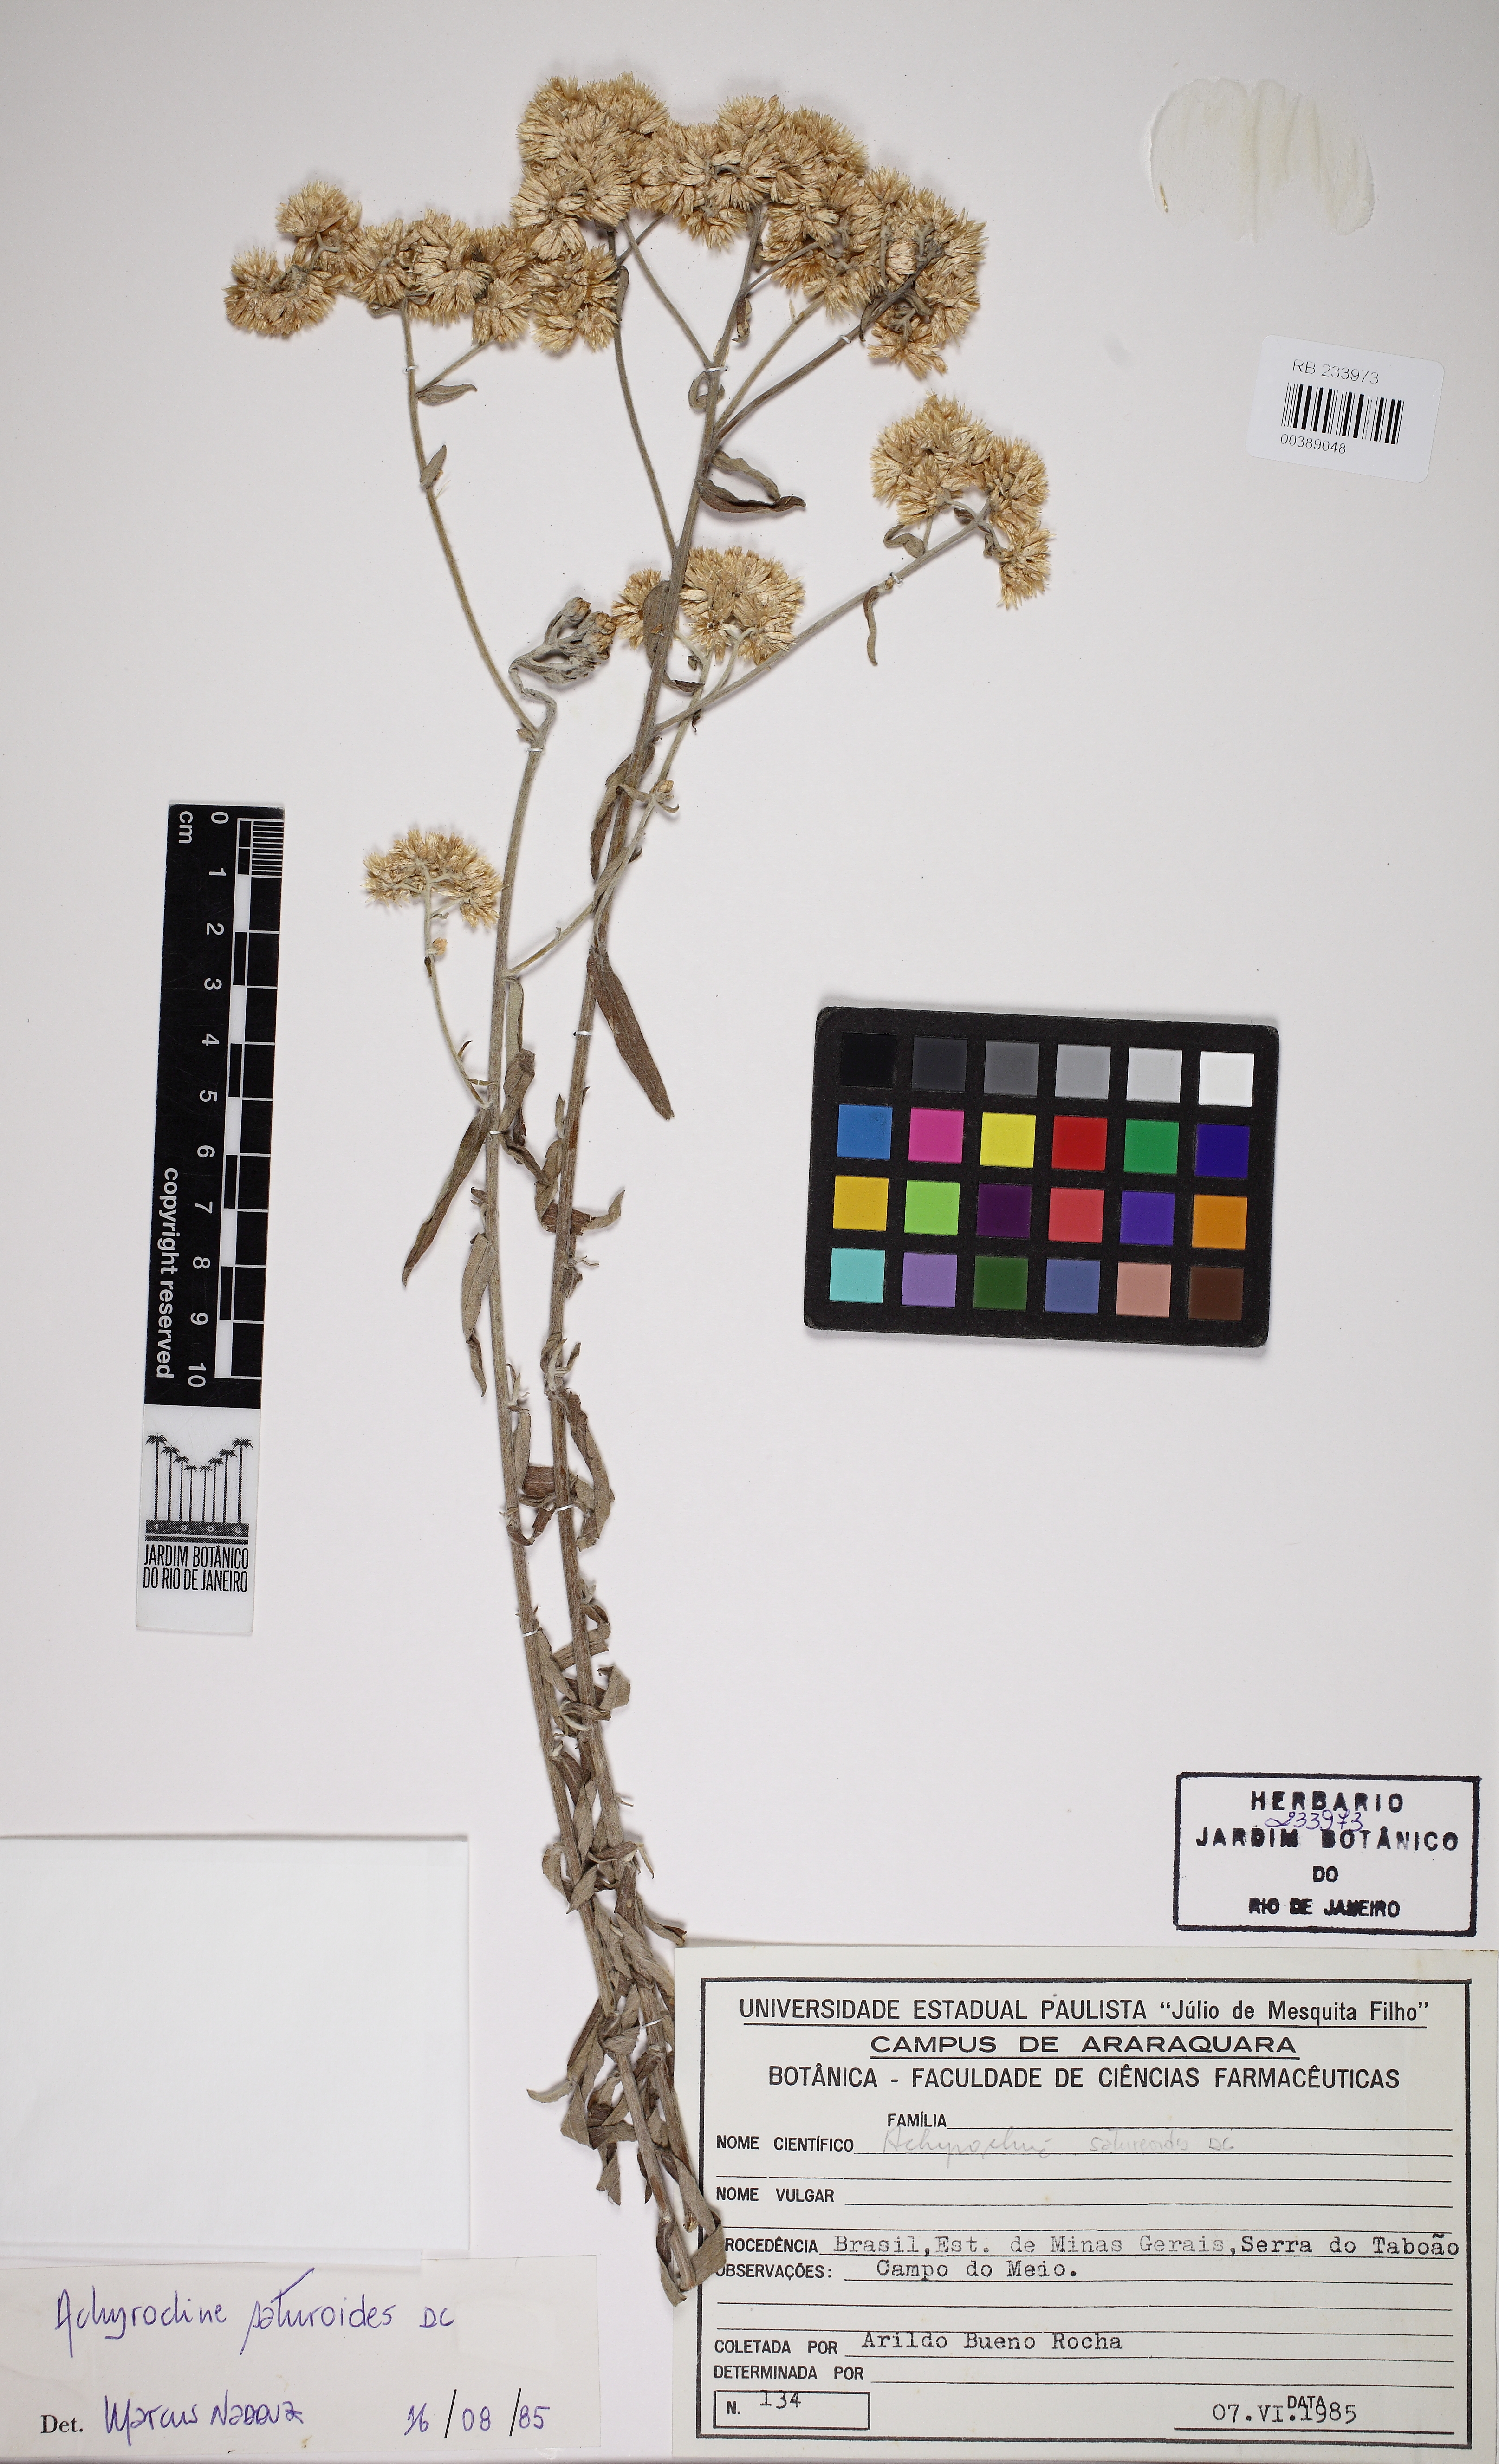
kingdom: Plantae
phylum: Tracheophyta
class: Magnoliopsida
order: Asterales
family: Asteraceae
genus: Achyrocline
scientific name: Achyrocline satureioides
